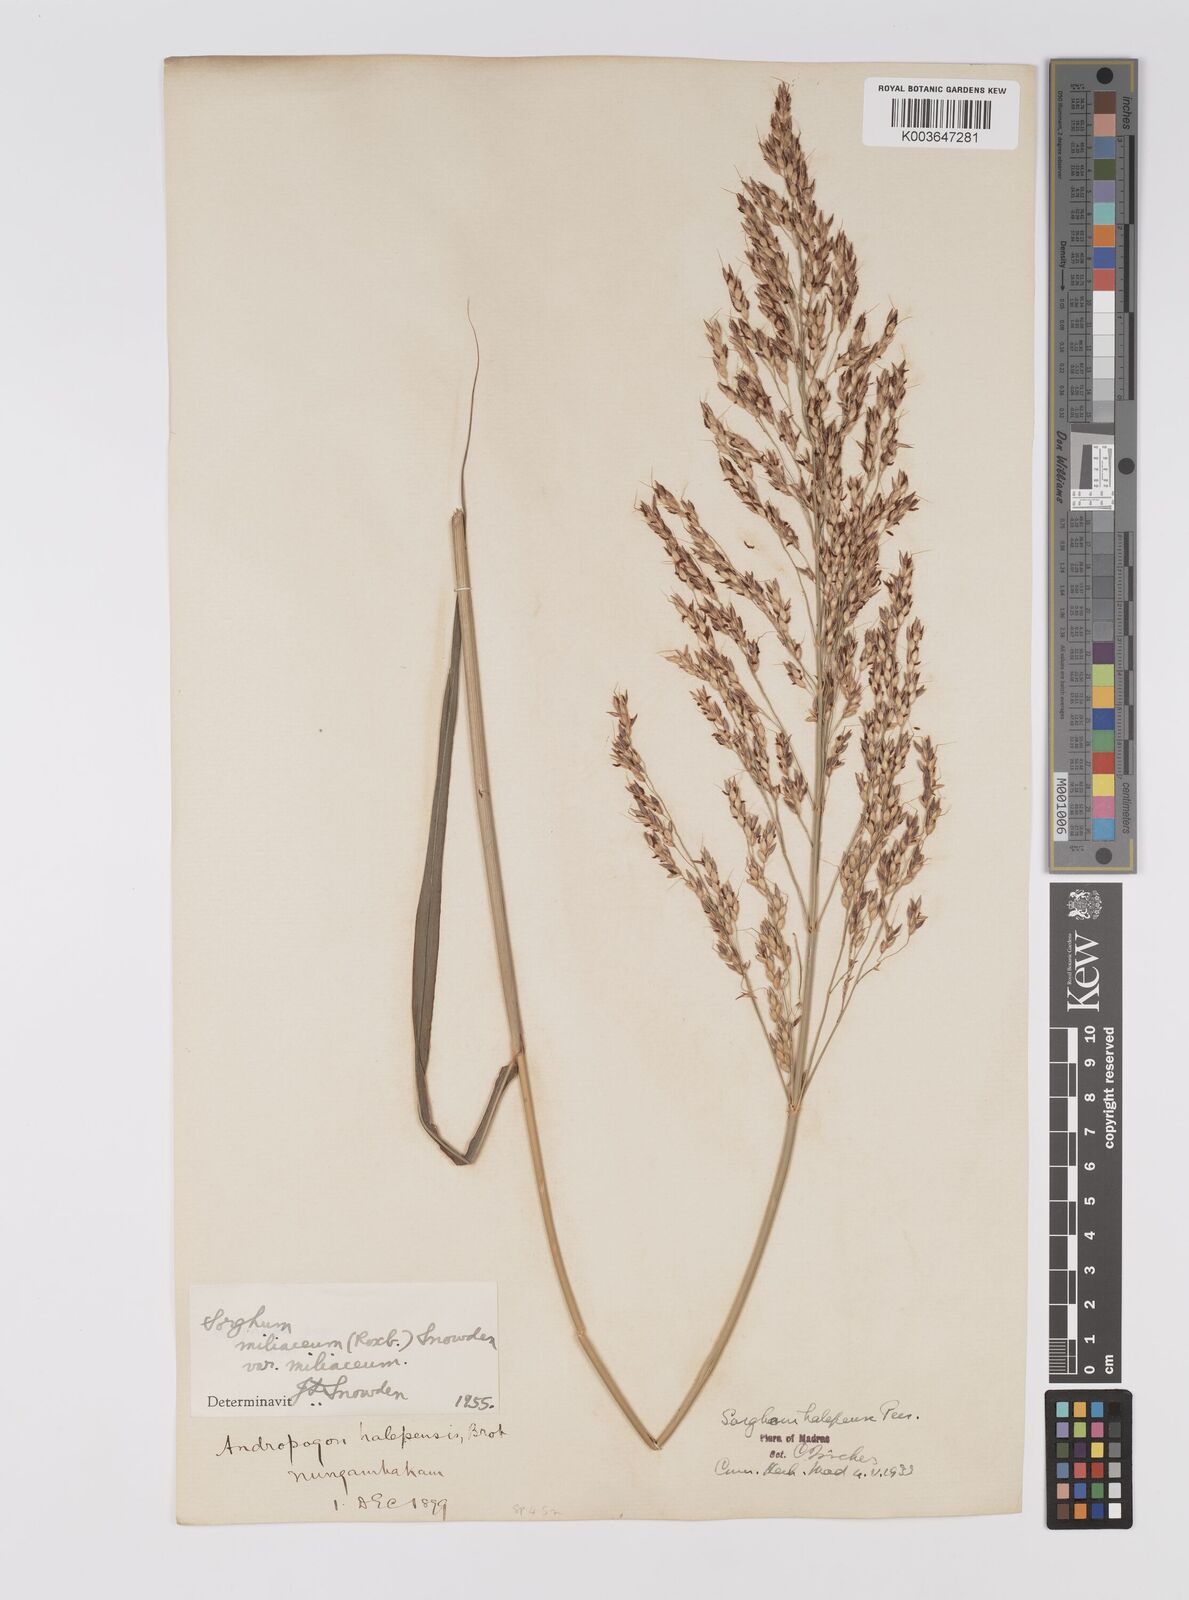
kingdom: Plantae
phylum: Tracheophyta
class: Liliopsida
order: Poales
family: Poaceae
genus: Sorghum
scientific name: Sorghum halepense
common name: Johnson-grass
